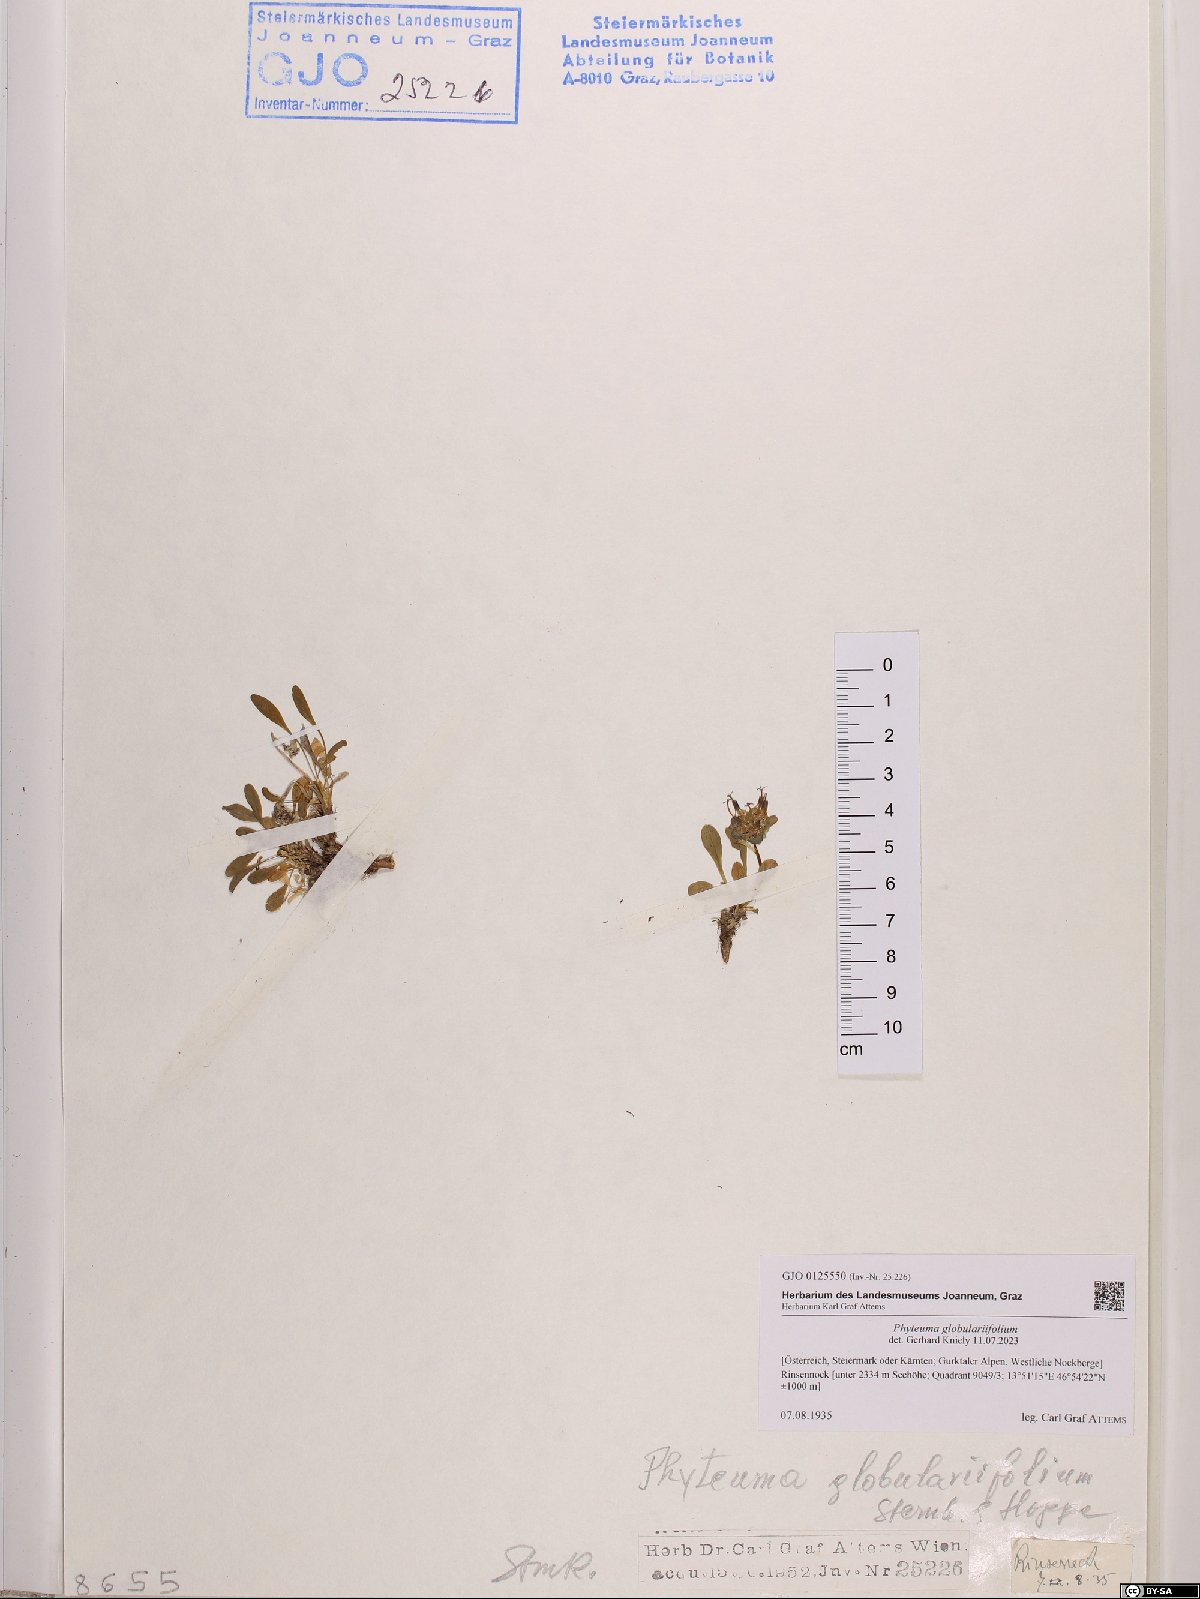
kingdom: Plantae
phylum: Tracheophyta
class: Magnoliopsida
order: Asterales
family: Campanulaceae
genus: Phyteuma
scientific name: Phyteuma globulariifolium
